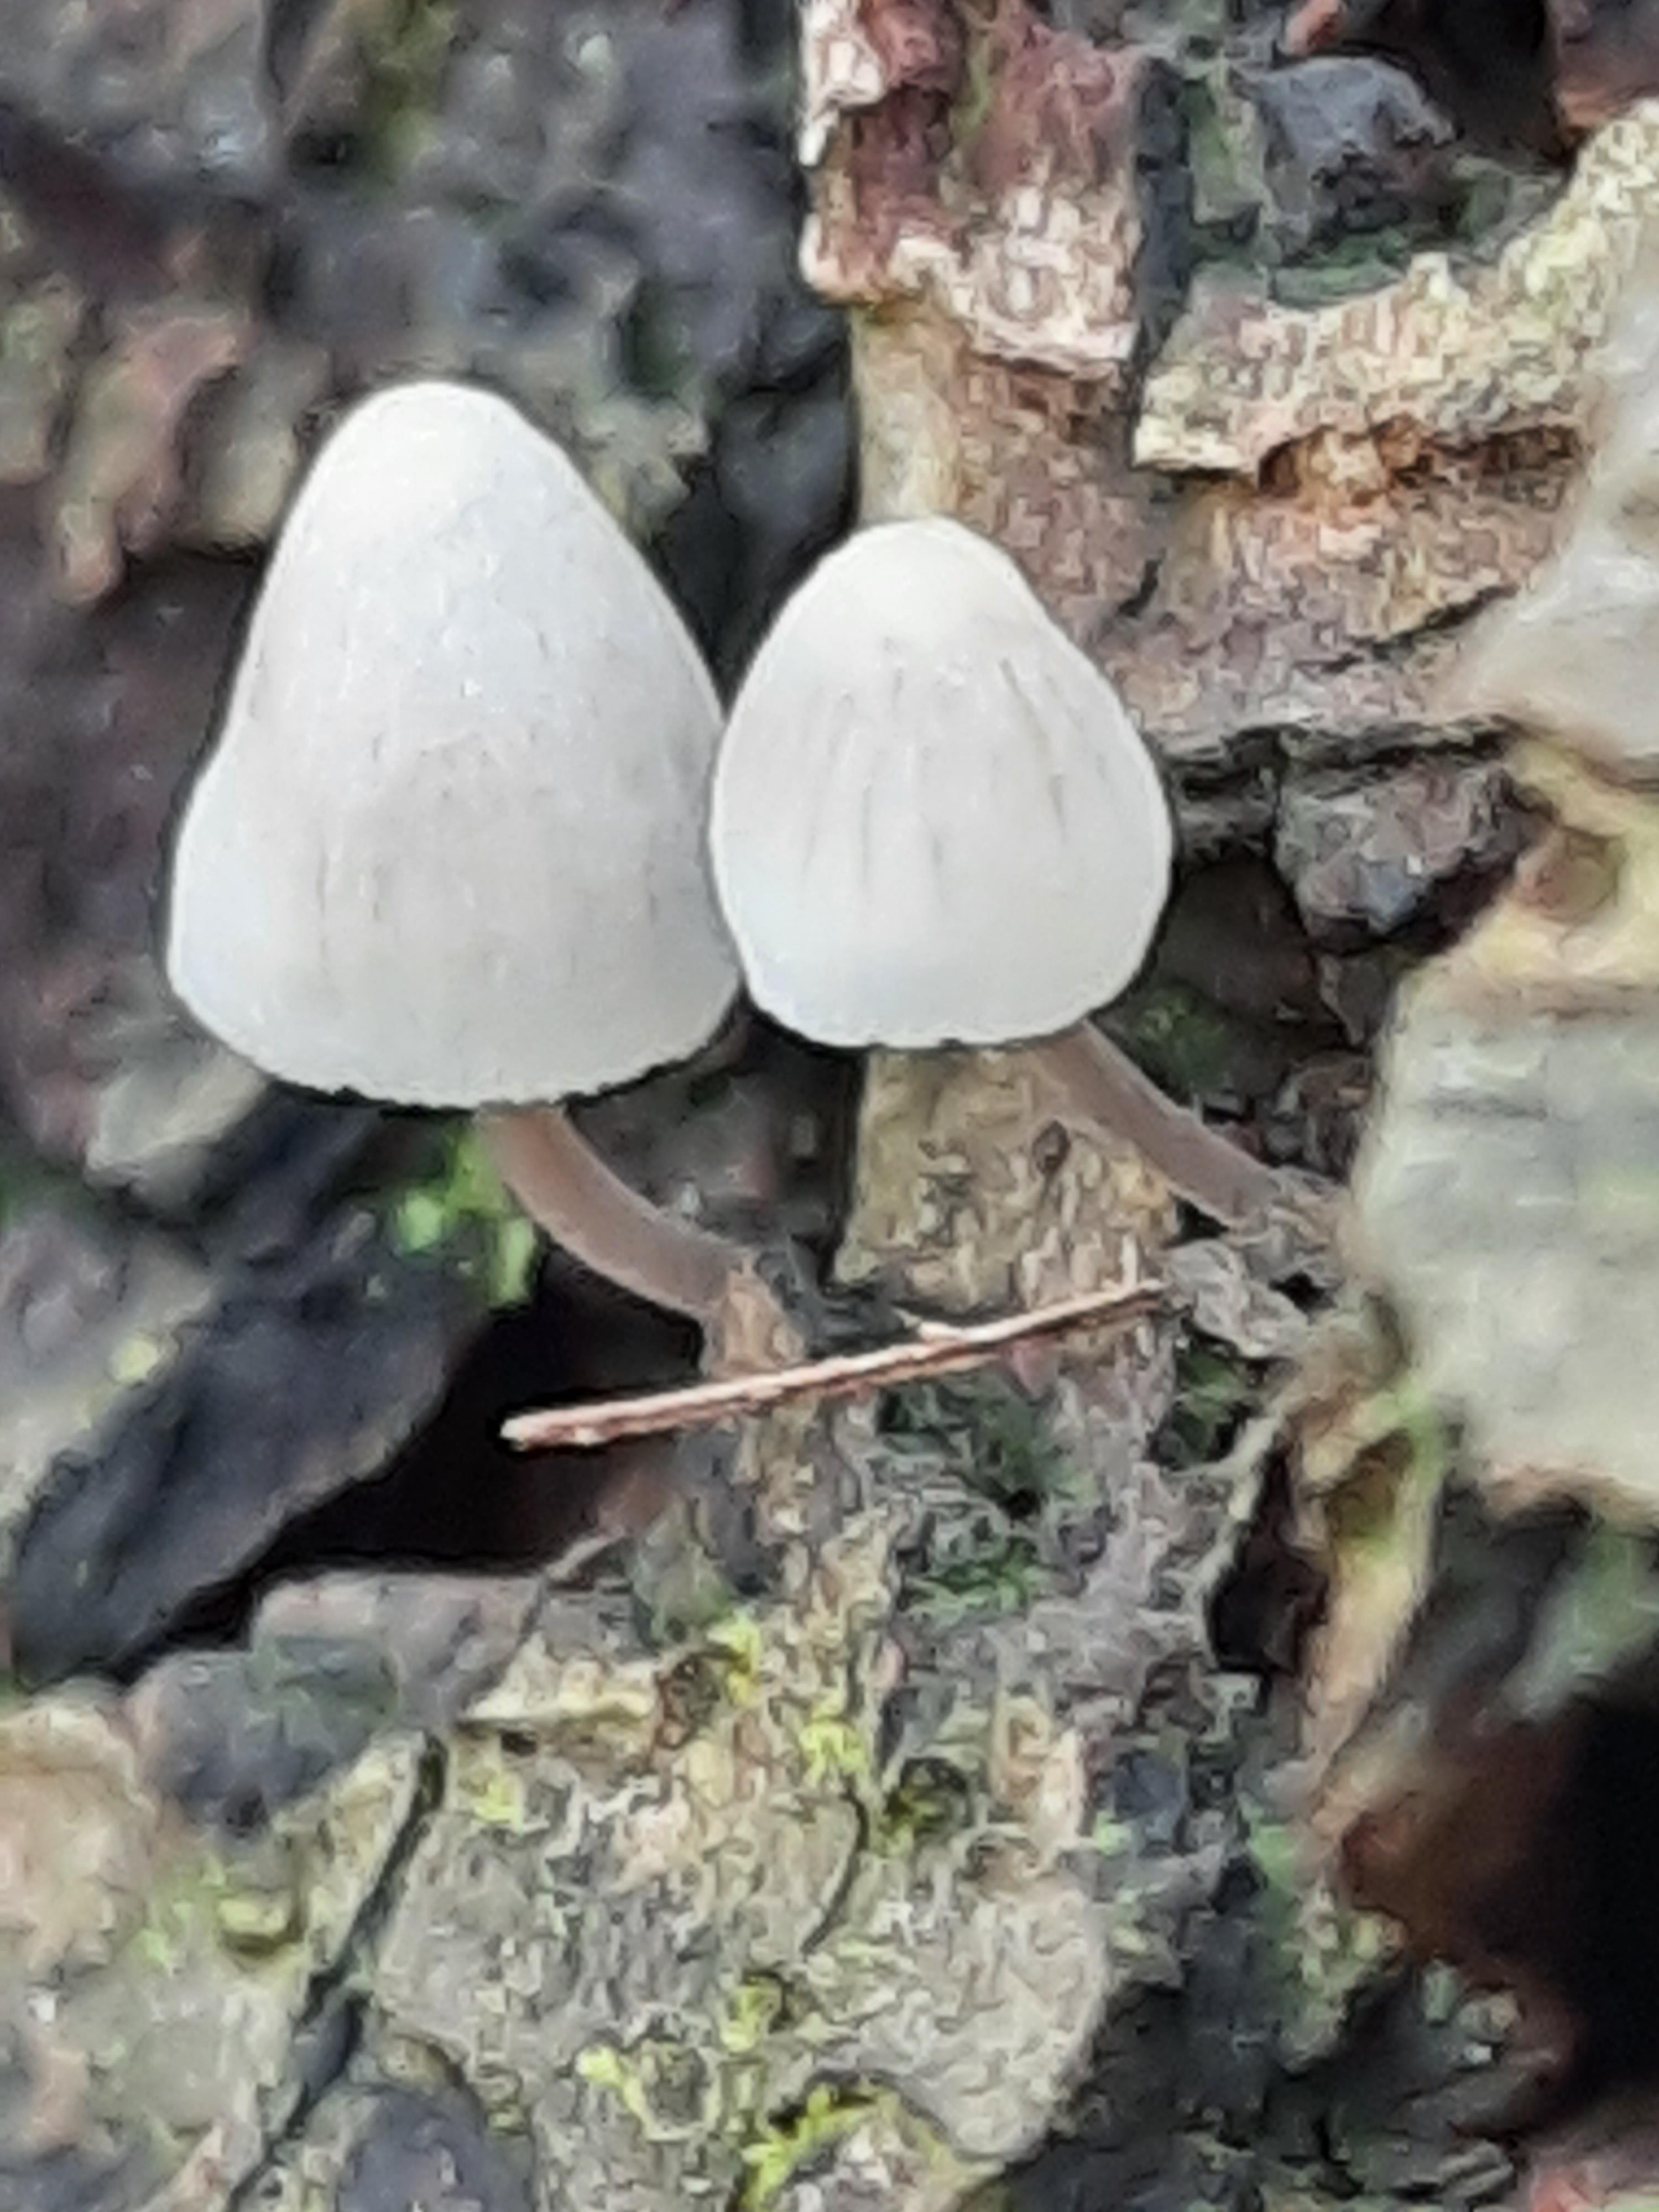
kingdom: Fungi
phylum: Basidiomycota
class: Agaricomycetes
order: Agaricales
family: Mycenaceae
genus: Mycena
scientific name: Mycena arcangeliana
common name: oliven-huesvamp
